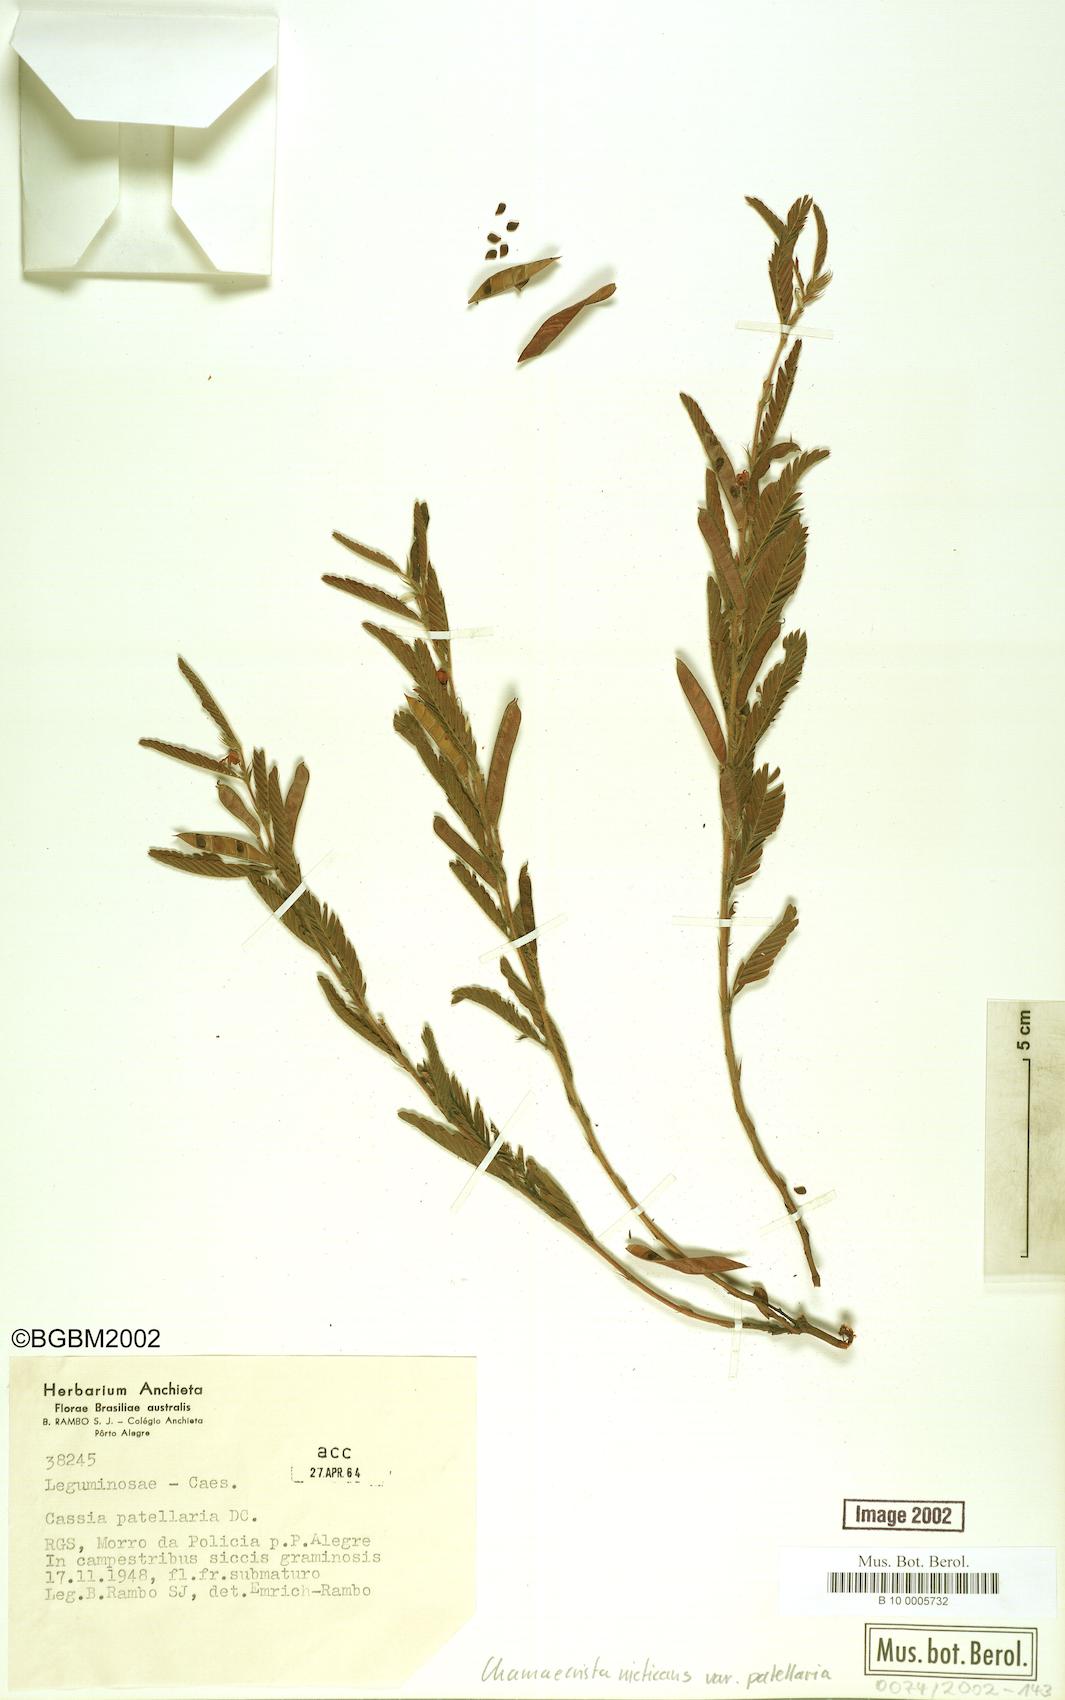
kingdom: Plantae
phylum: Tracheophyta
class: Magnoliopsida
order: Fabales
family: Fabaceae
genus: Chamaecrista
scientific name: Chamaecrista nictitans
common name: Sensitive cassia
